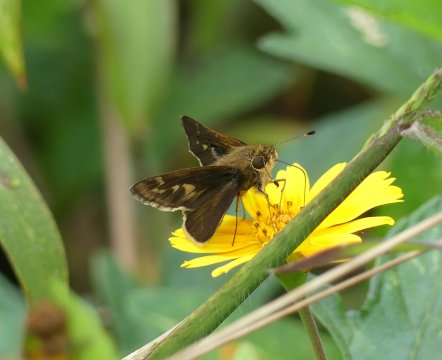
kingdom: Animalia
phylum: Arthropoda
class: Insecta
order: Lepidoptera
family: Hesperiidae
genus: Pompeius
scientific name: Pompeius pompeius
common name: Pompeius Skipper
